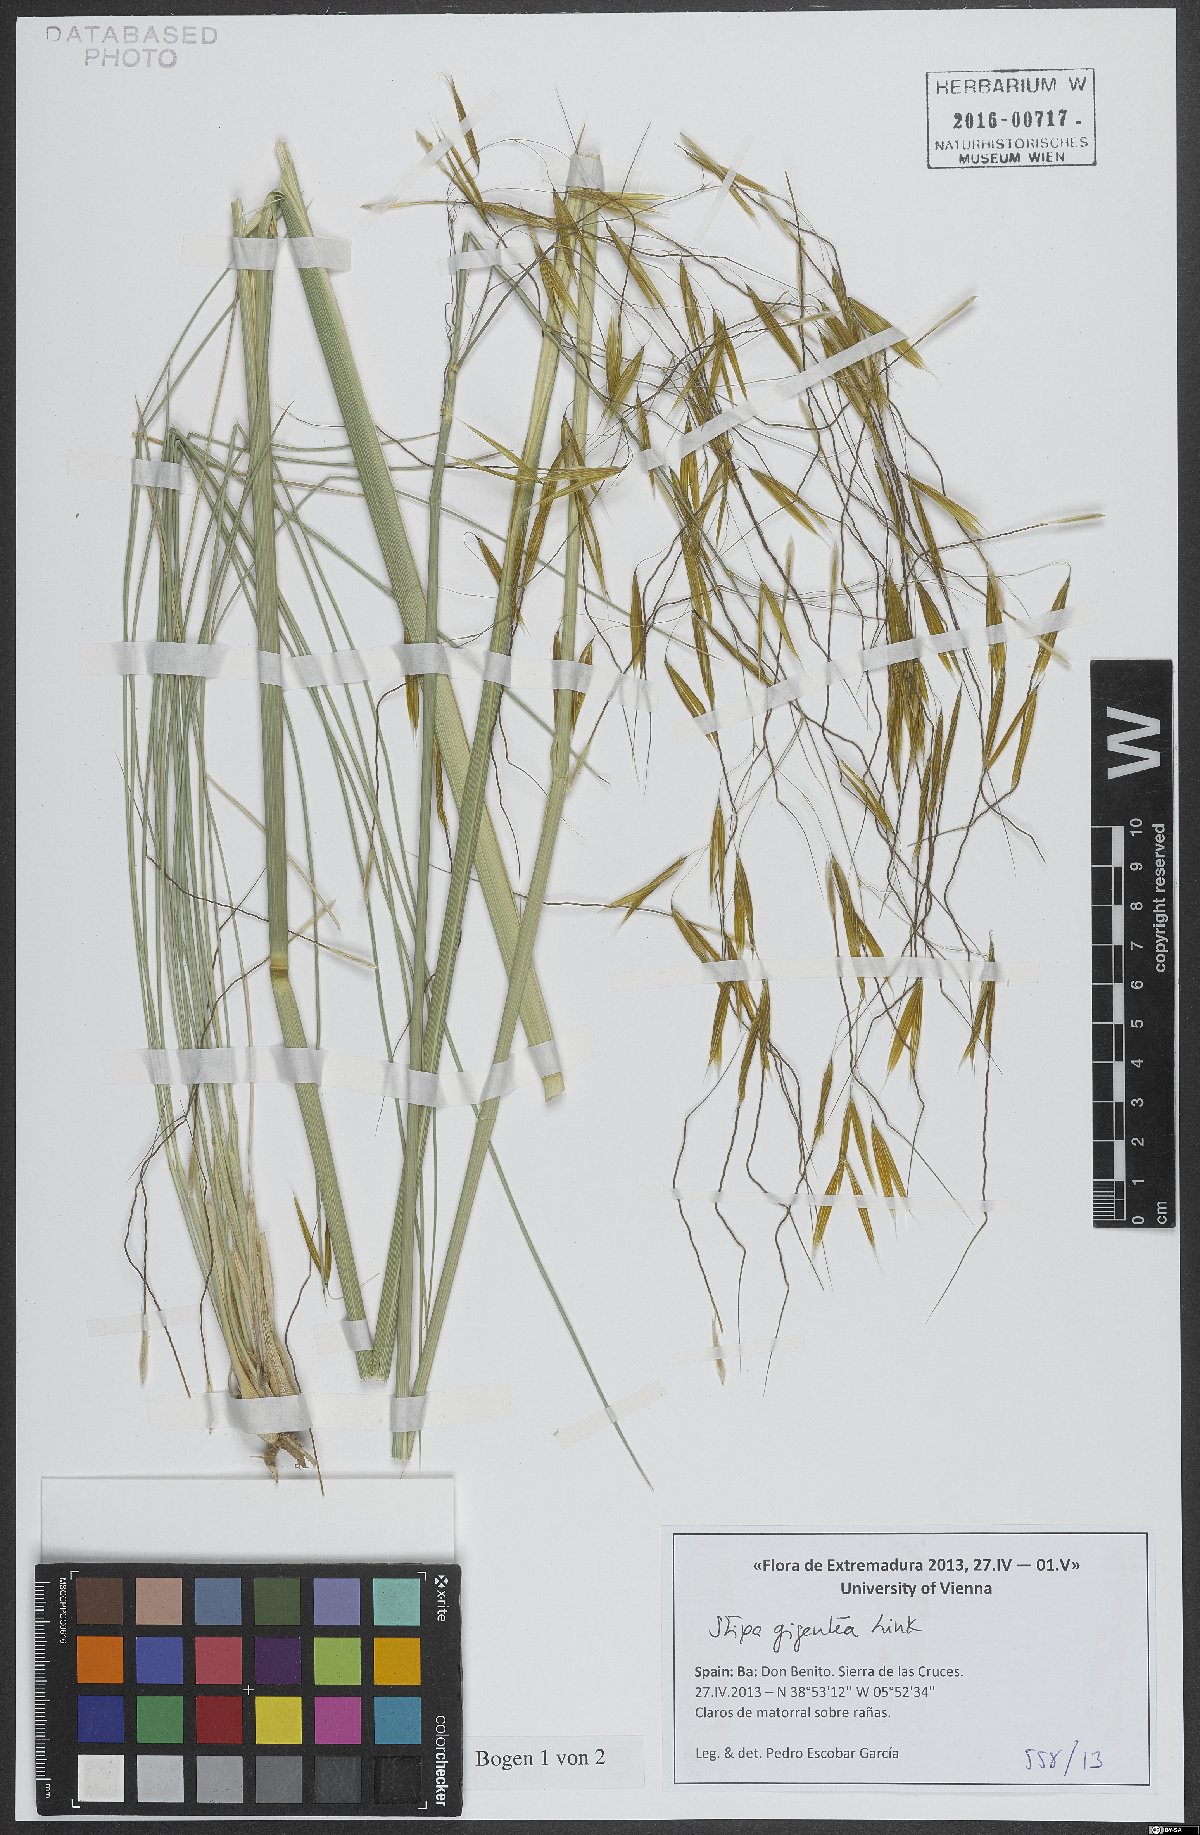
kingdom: Plantae
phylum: Tracheophyta
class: Liliopsida
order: Poales
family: Poaceae
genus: Celtica
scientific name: Celtica gigantea
